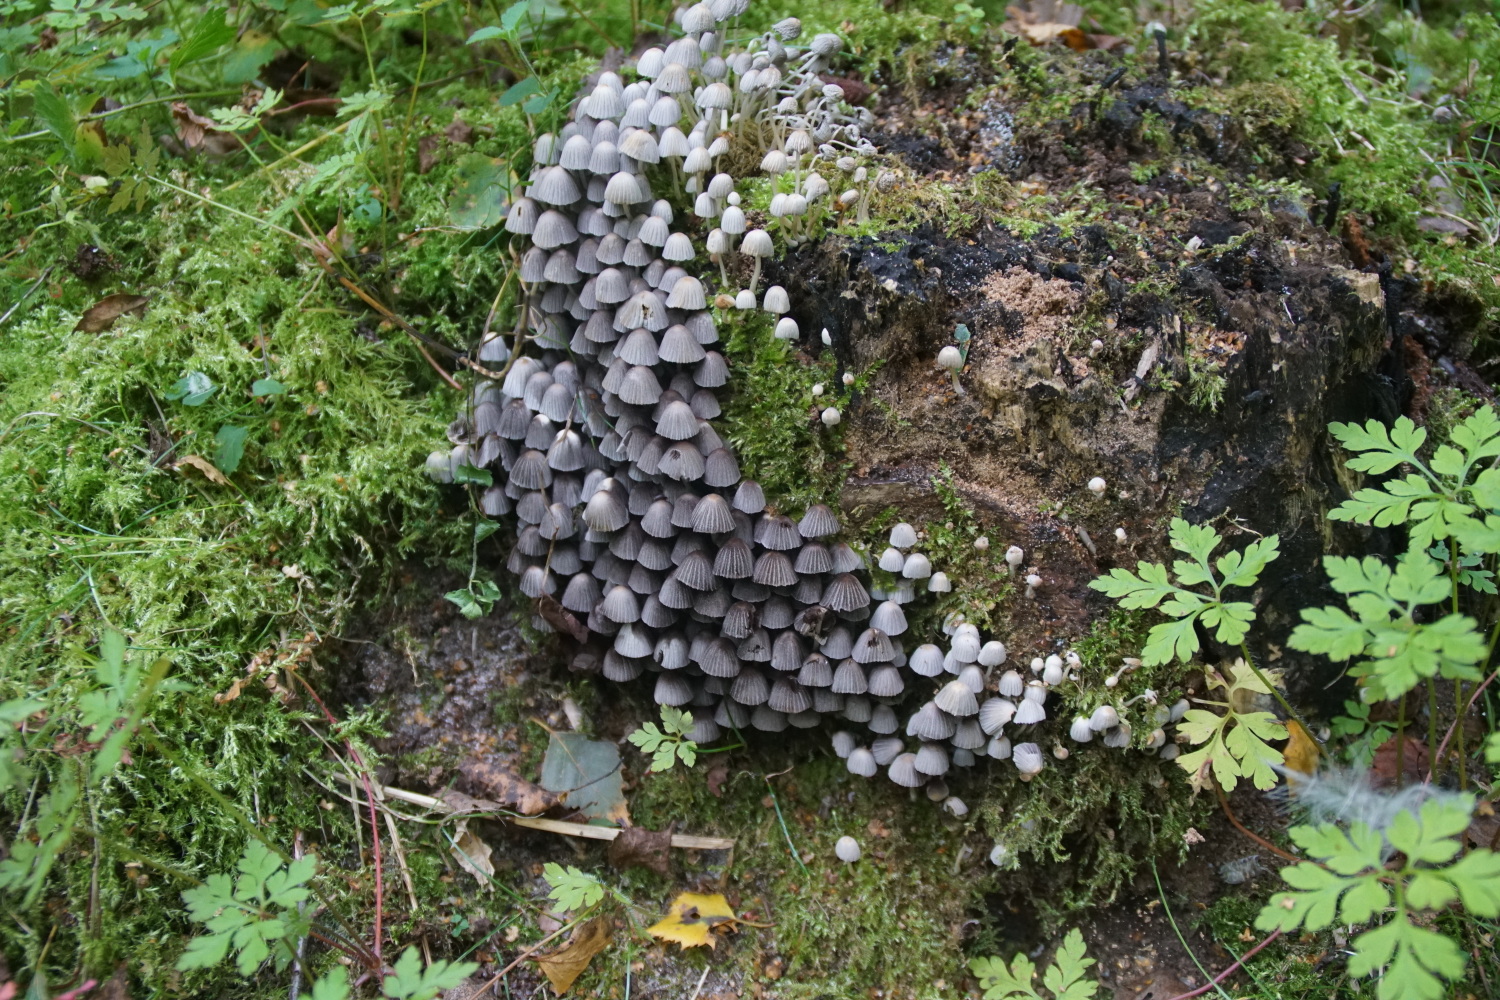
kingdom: Fungi
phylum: Basidiomycota
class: Agaricomycetes
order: Agaricales
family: Psathyrellaceae
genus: Coprinellus
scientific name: Coprinellus disseminatus
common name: bredsået blækhat
